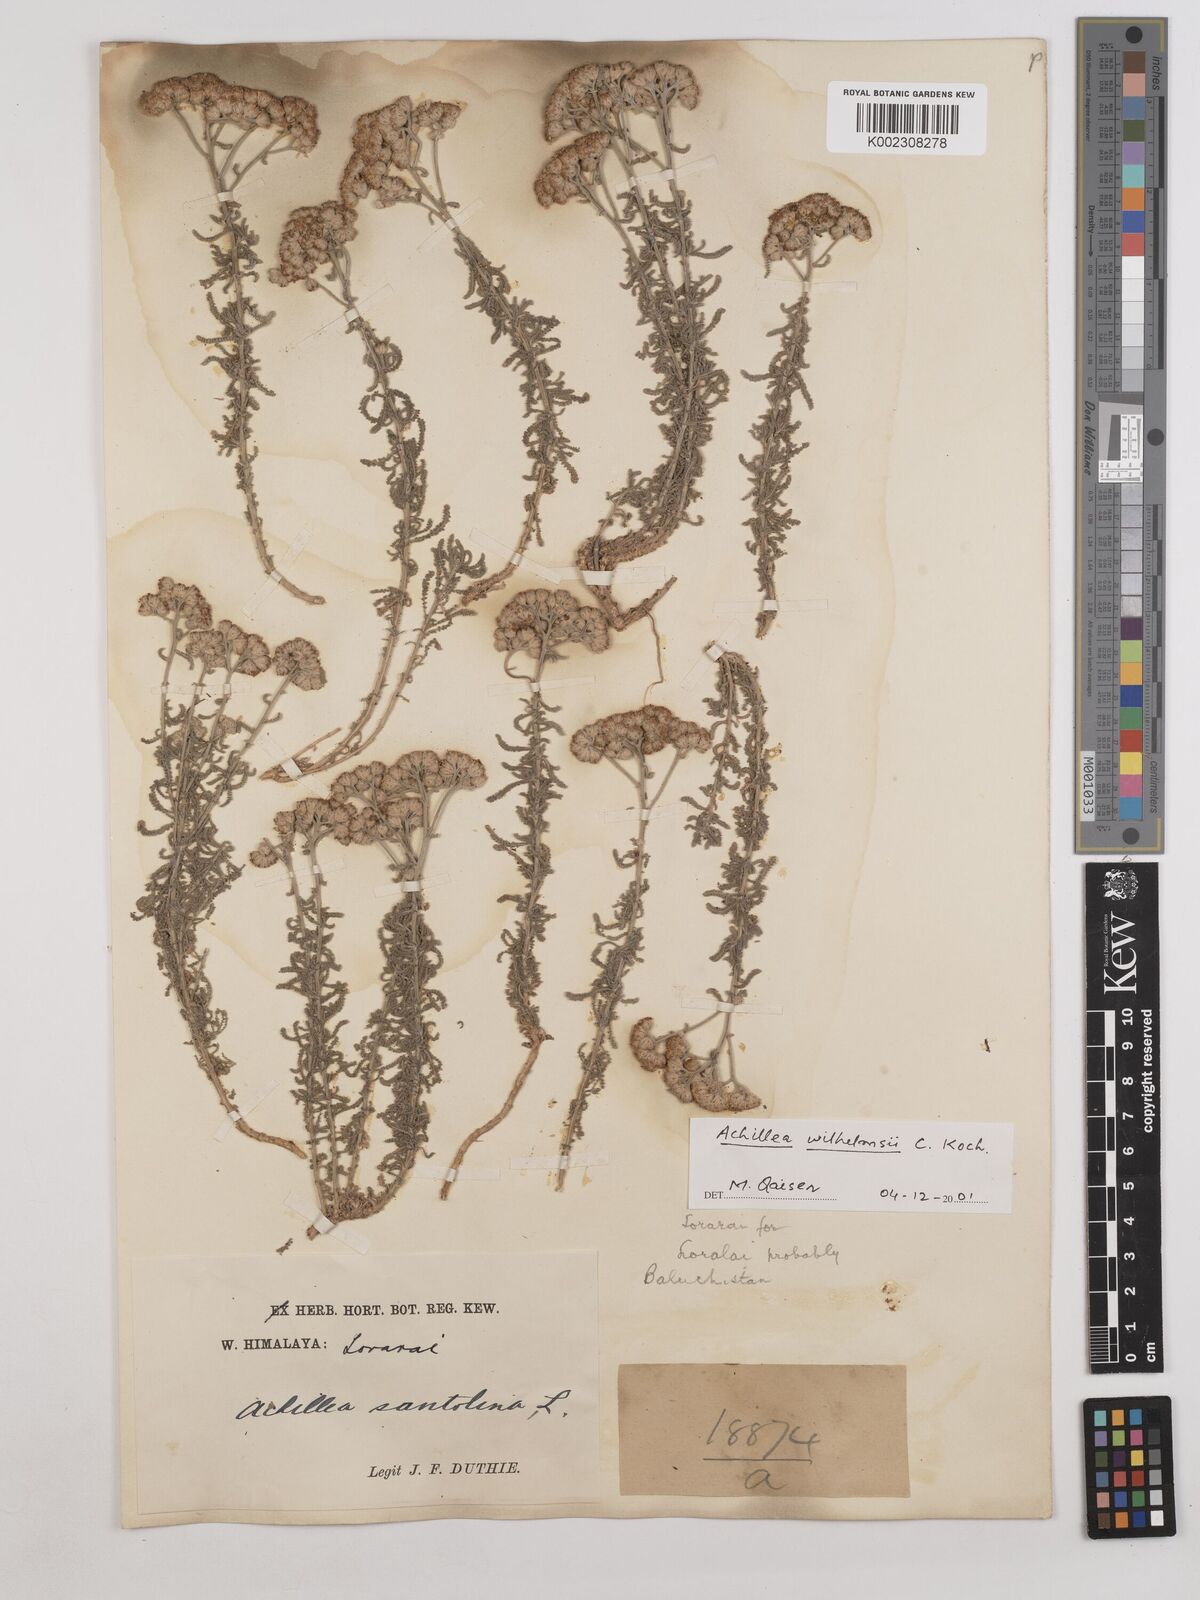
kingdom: Plantae
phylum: Tracheophyta
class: Magnoliopsida
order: Asterales
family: Asteraceae
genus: Achillea
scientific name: Achillea
